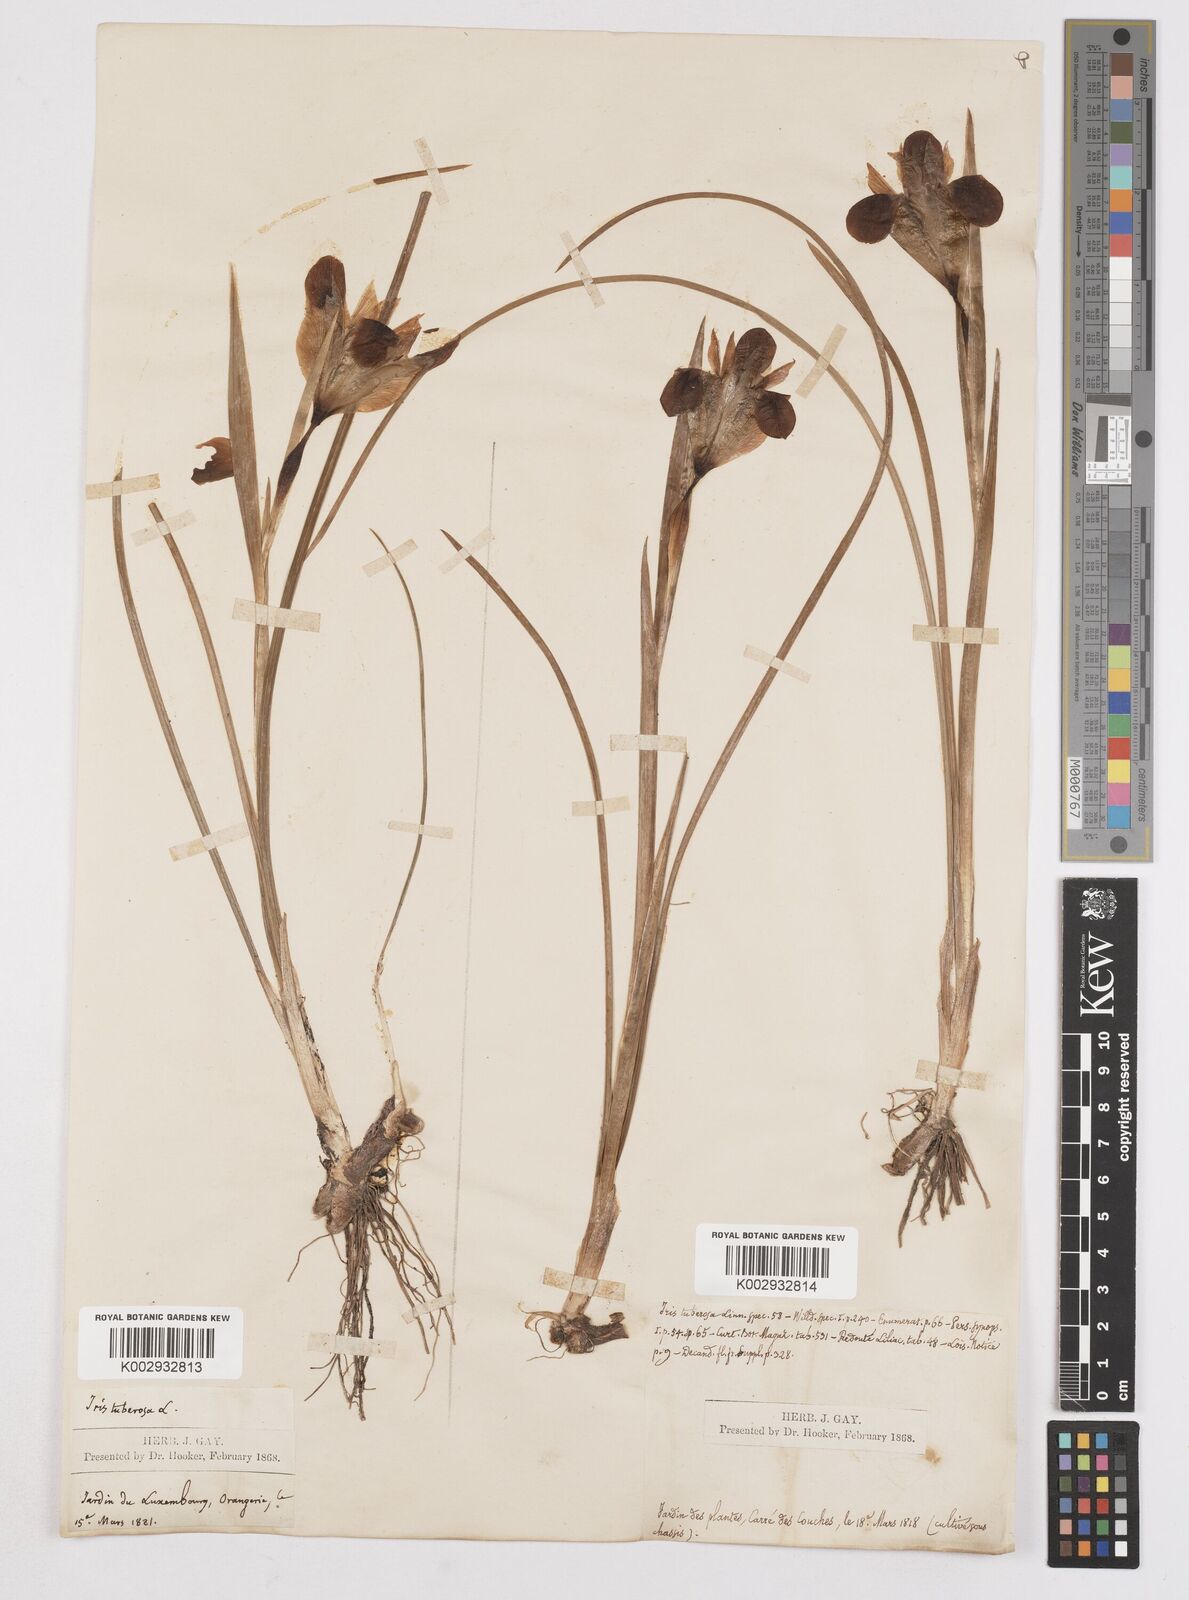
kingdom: Plantae
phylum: Tracheophyta
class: Liliopsida
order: Asparagales
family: Iridaceae
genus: Iris
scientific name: Iris tuberosa
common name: Snake's-head iris
